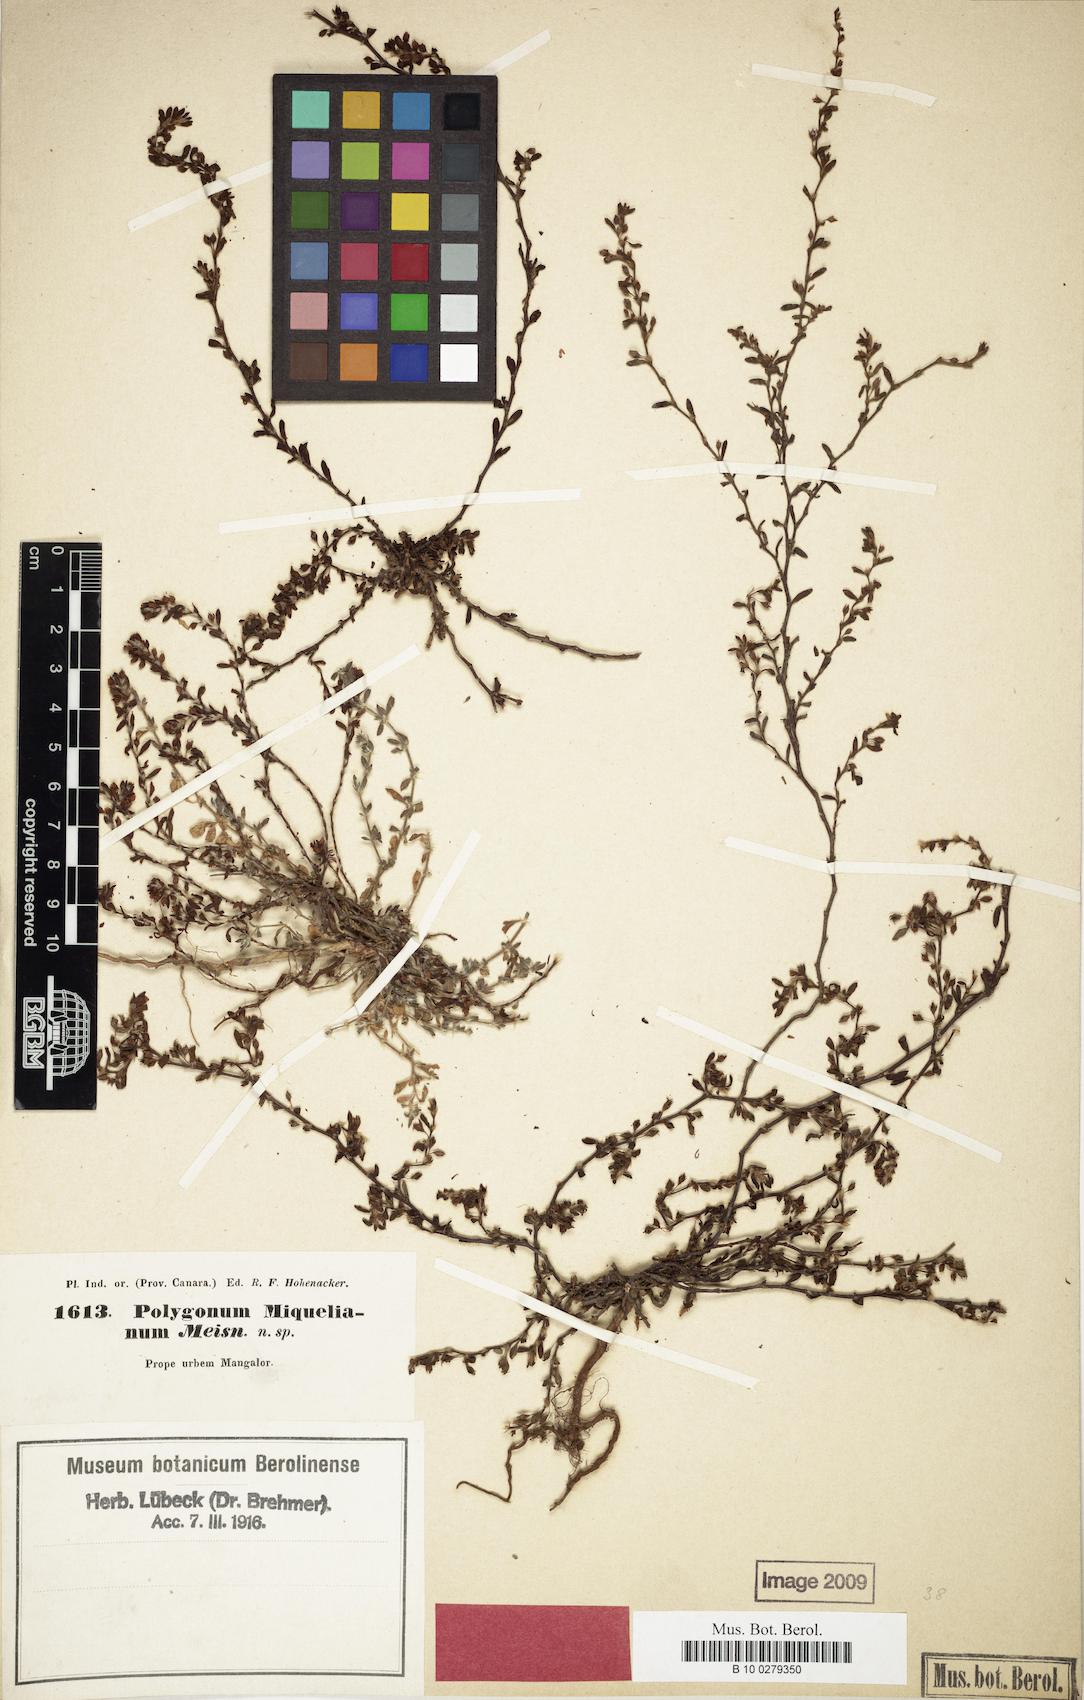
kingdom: Plantae
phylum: Tracheophyta
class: Magnoliopsida
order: Caryophyllales
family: Polygonaceae
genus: Polygonum
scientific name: Polygonum plebeium
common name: Common knotweed
